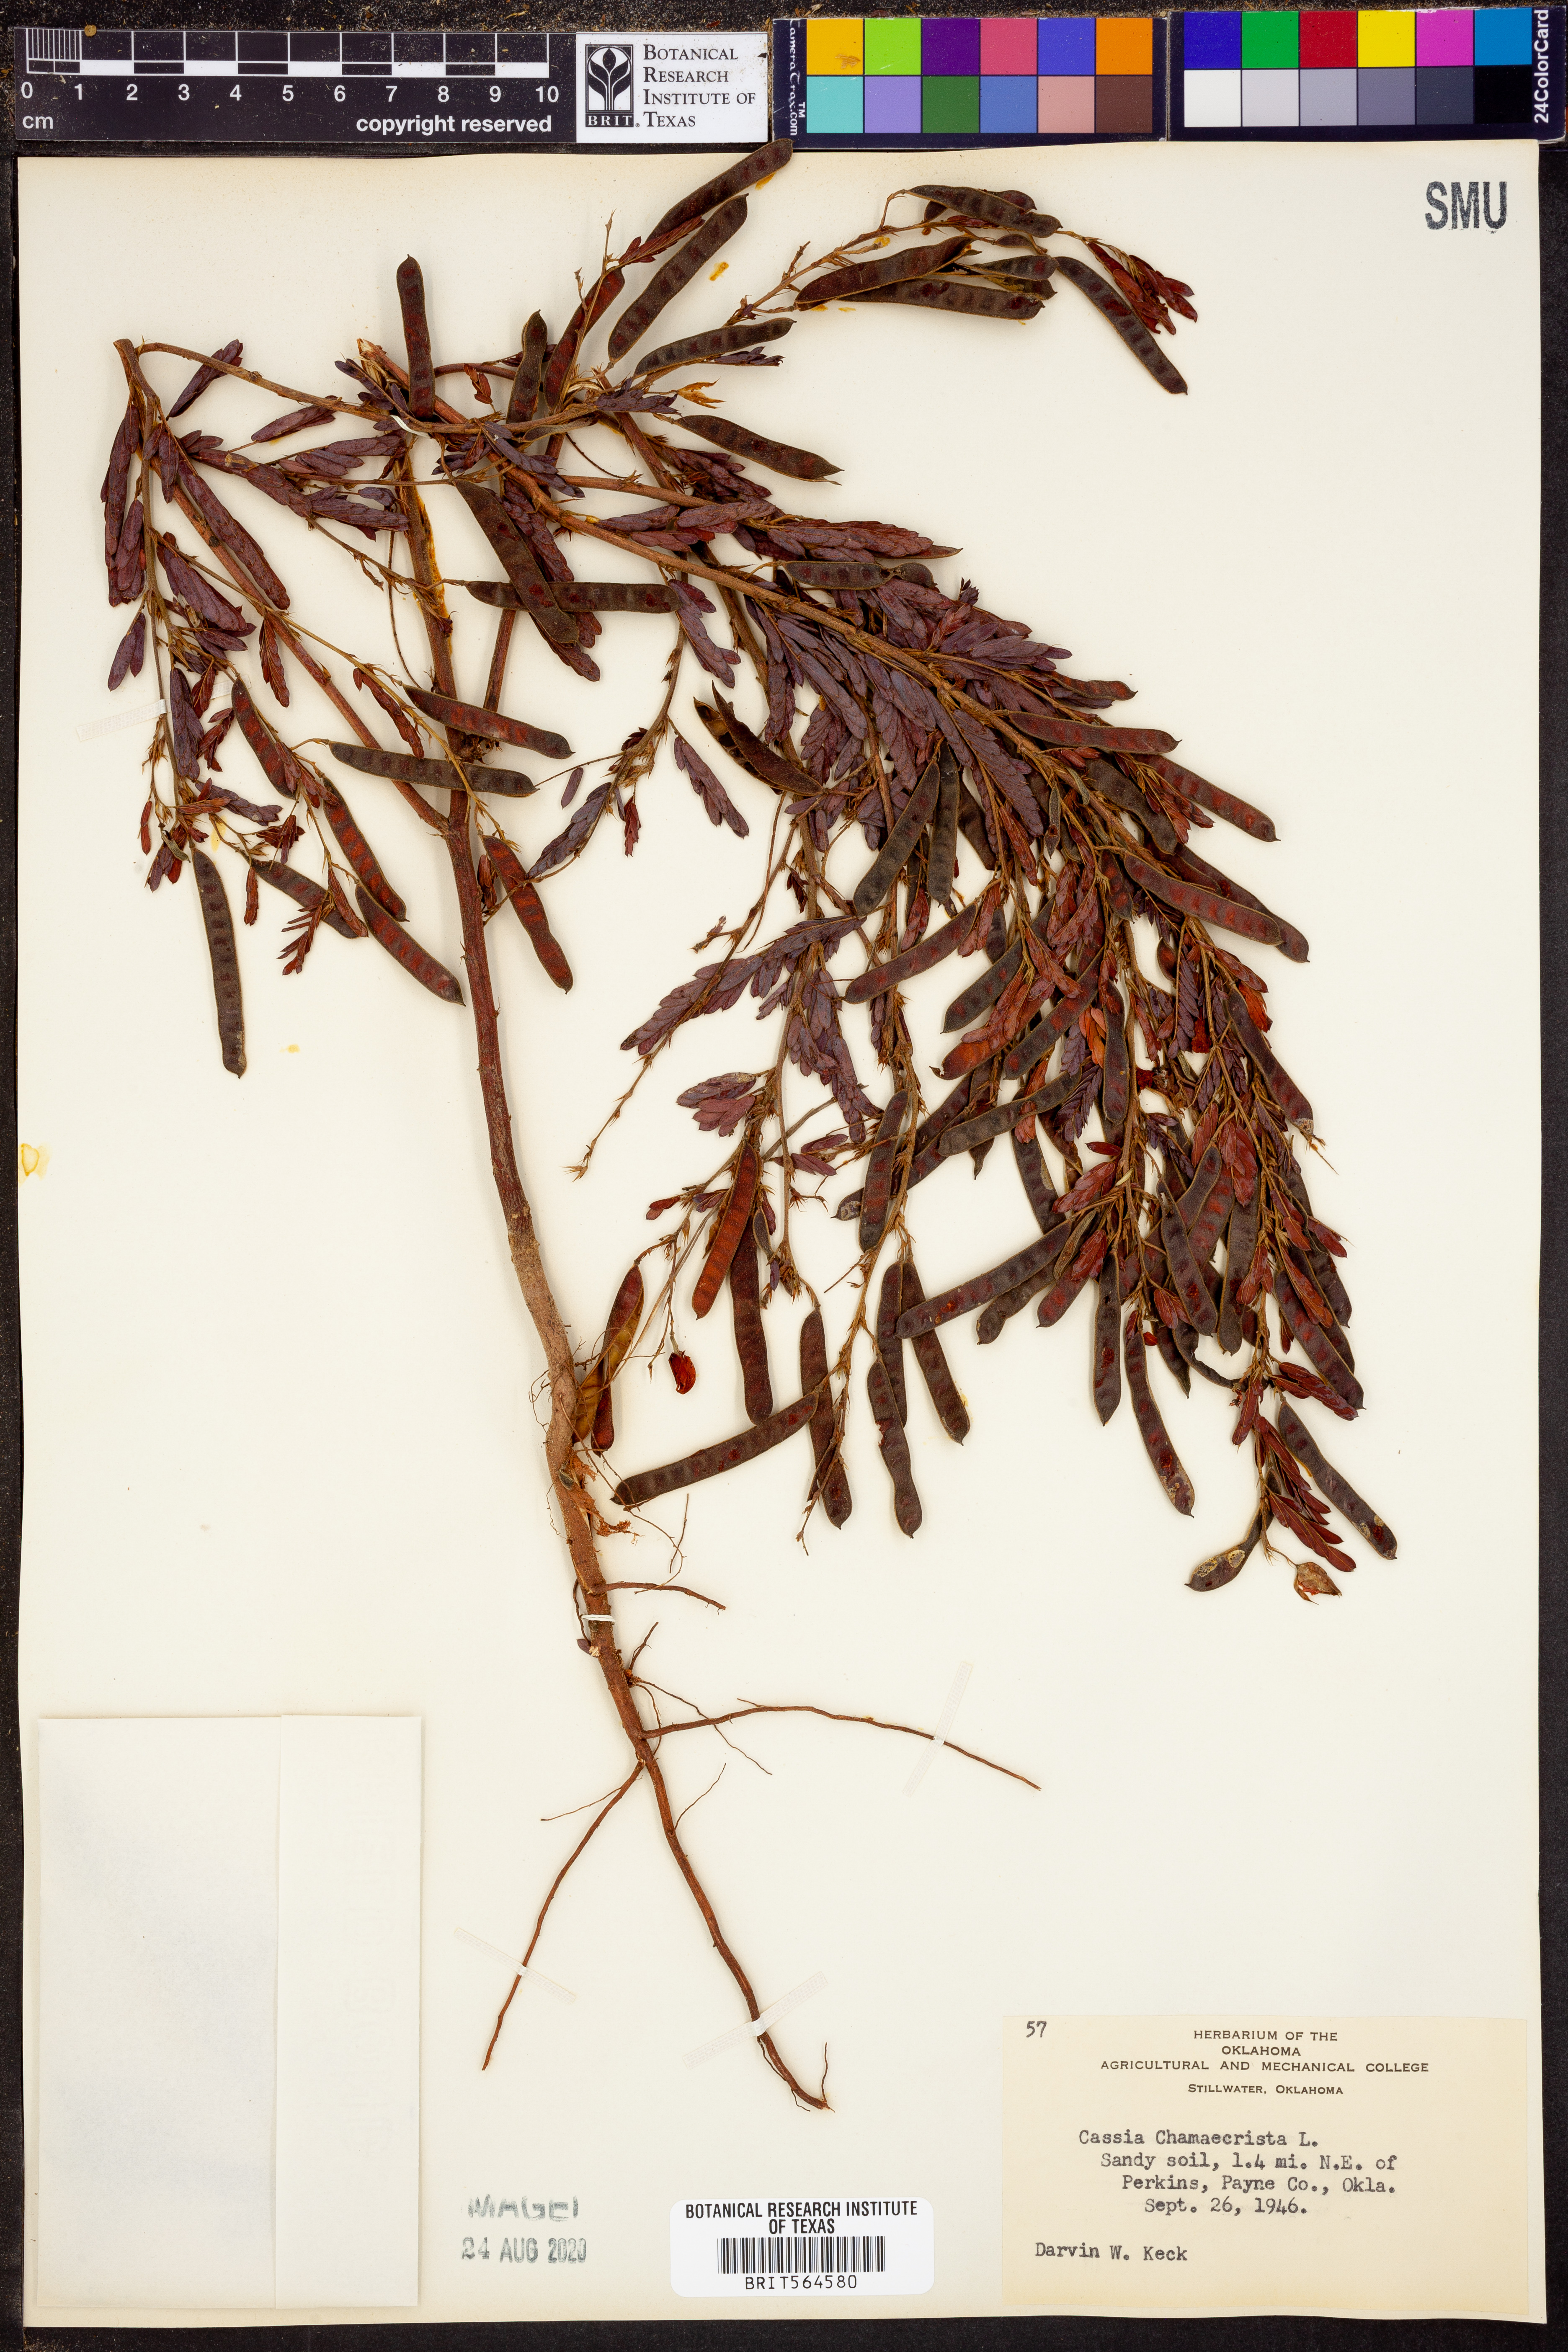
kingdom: Plantae
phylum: Tracheophyta
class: Magnoliopsida
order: Fabales
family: Fabaceae
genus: Chamaecrista
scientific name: Chamaecrista fasciculata
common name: Golden cassia
